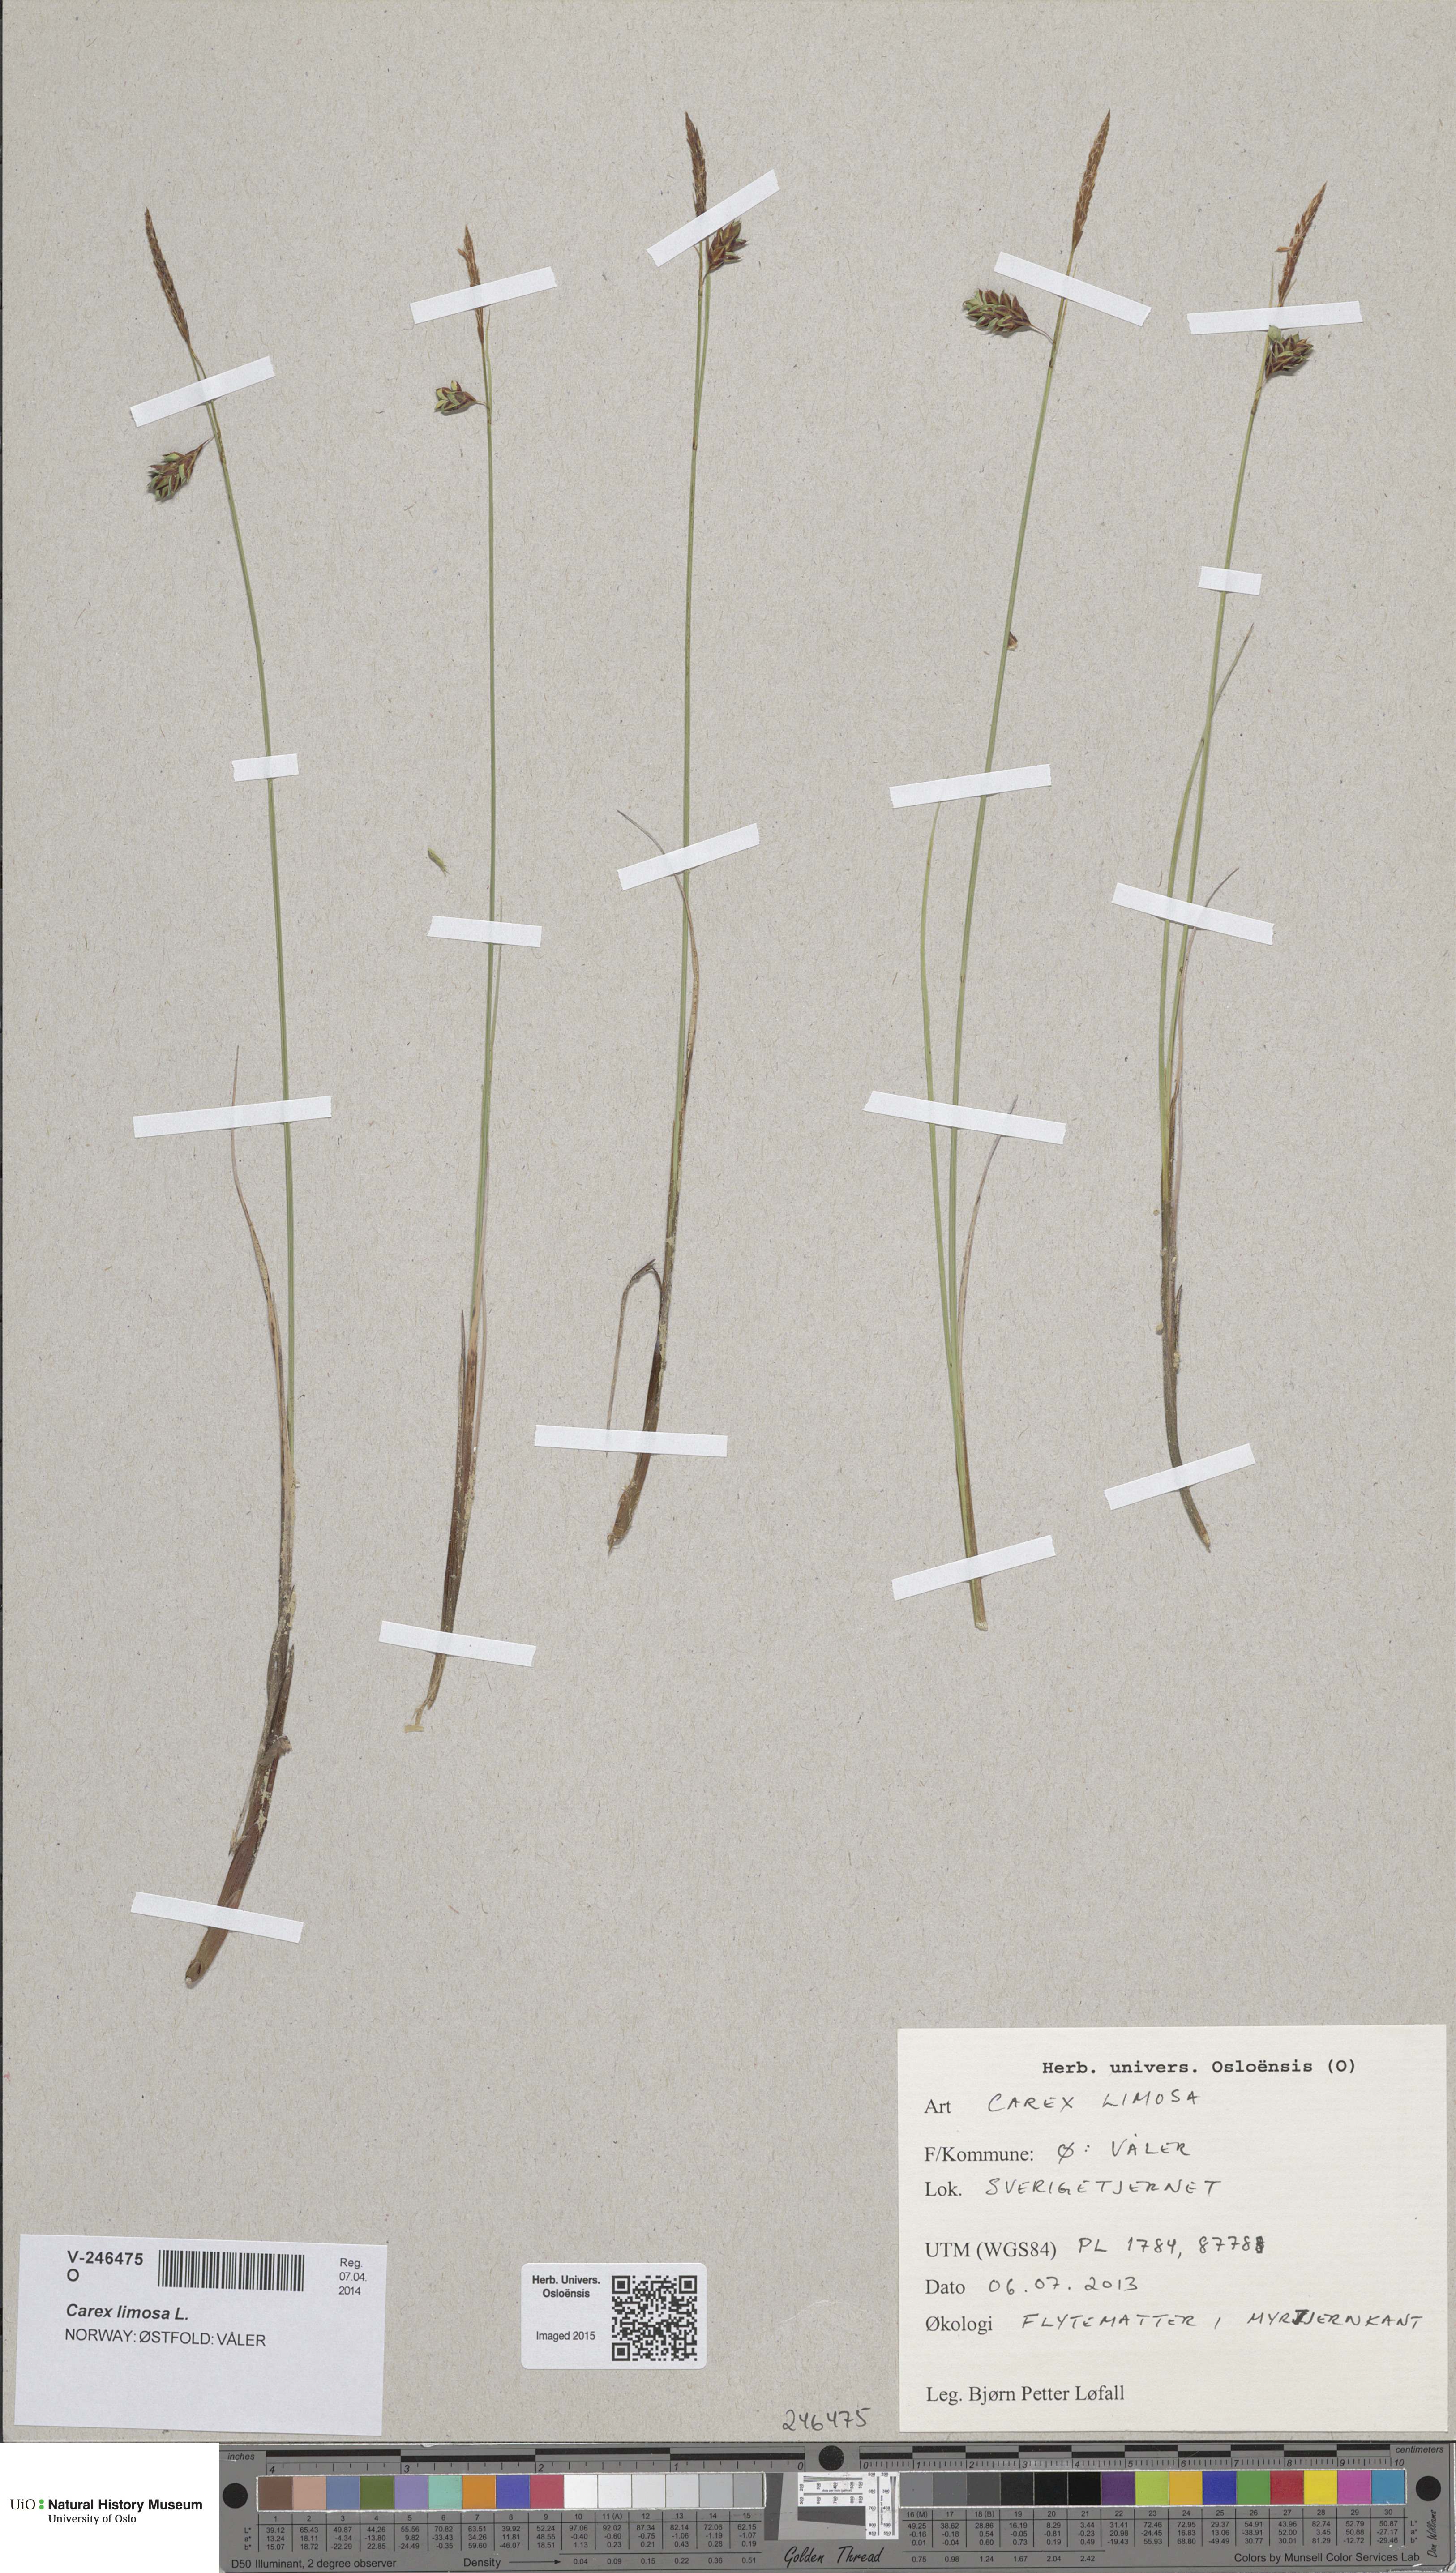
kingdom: Plantae
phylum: Tracheophyta
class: Liliopsida
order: Poales
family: Cyperaceae
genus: Carex
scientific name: Carex limosa
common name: Bog sedge
